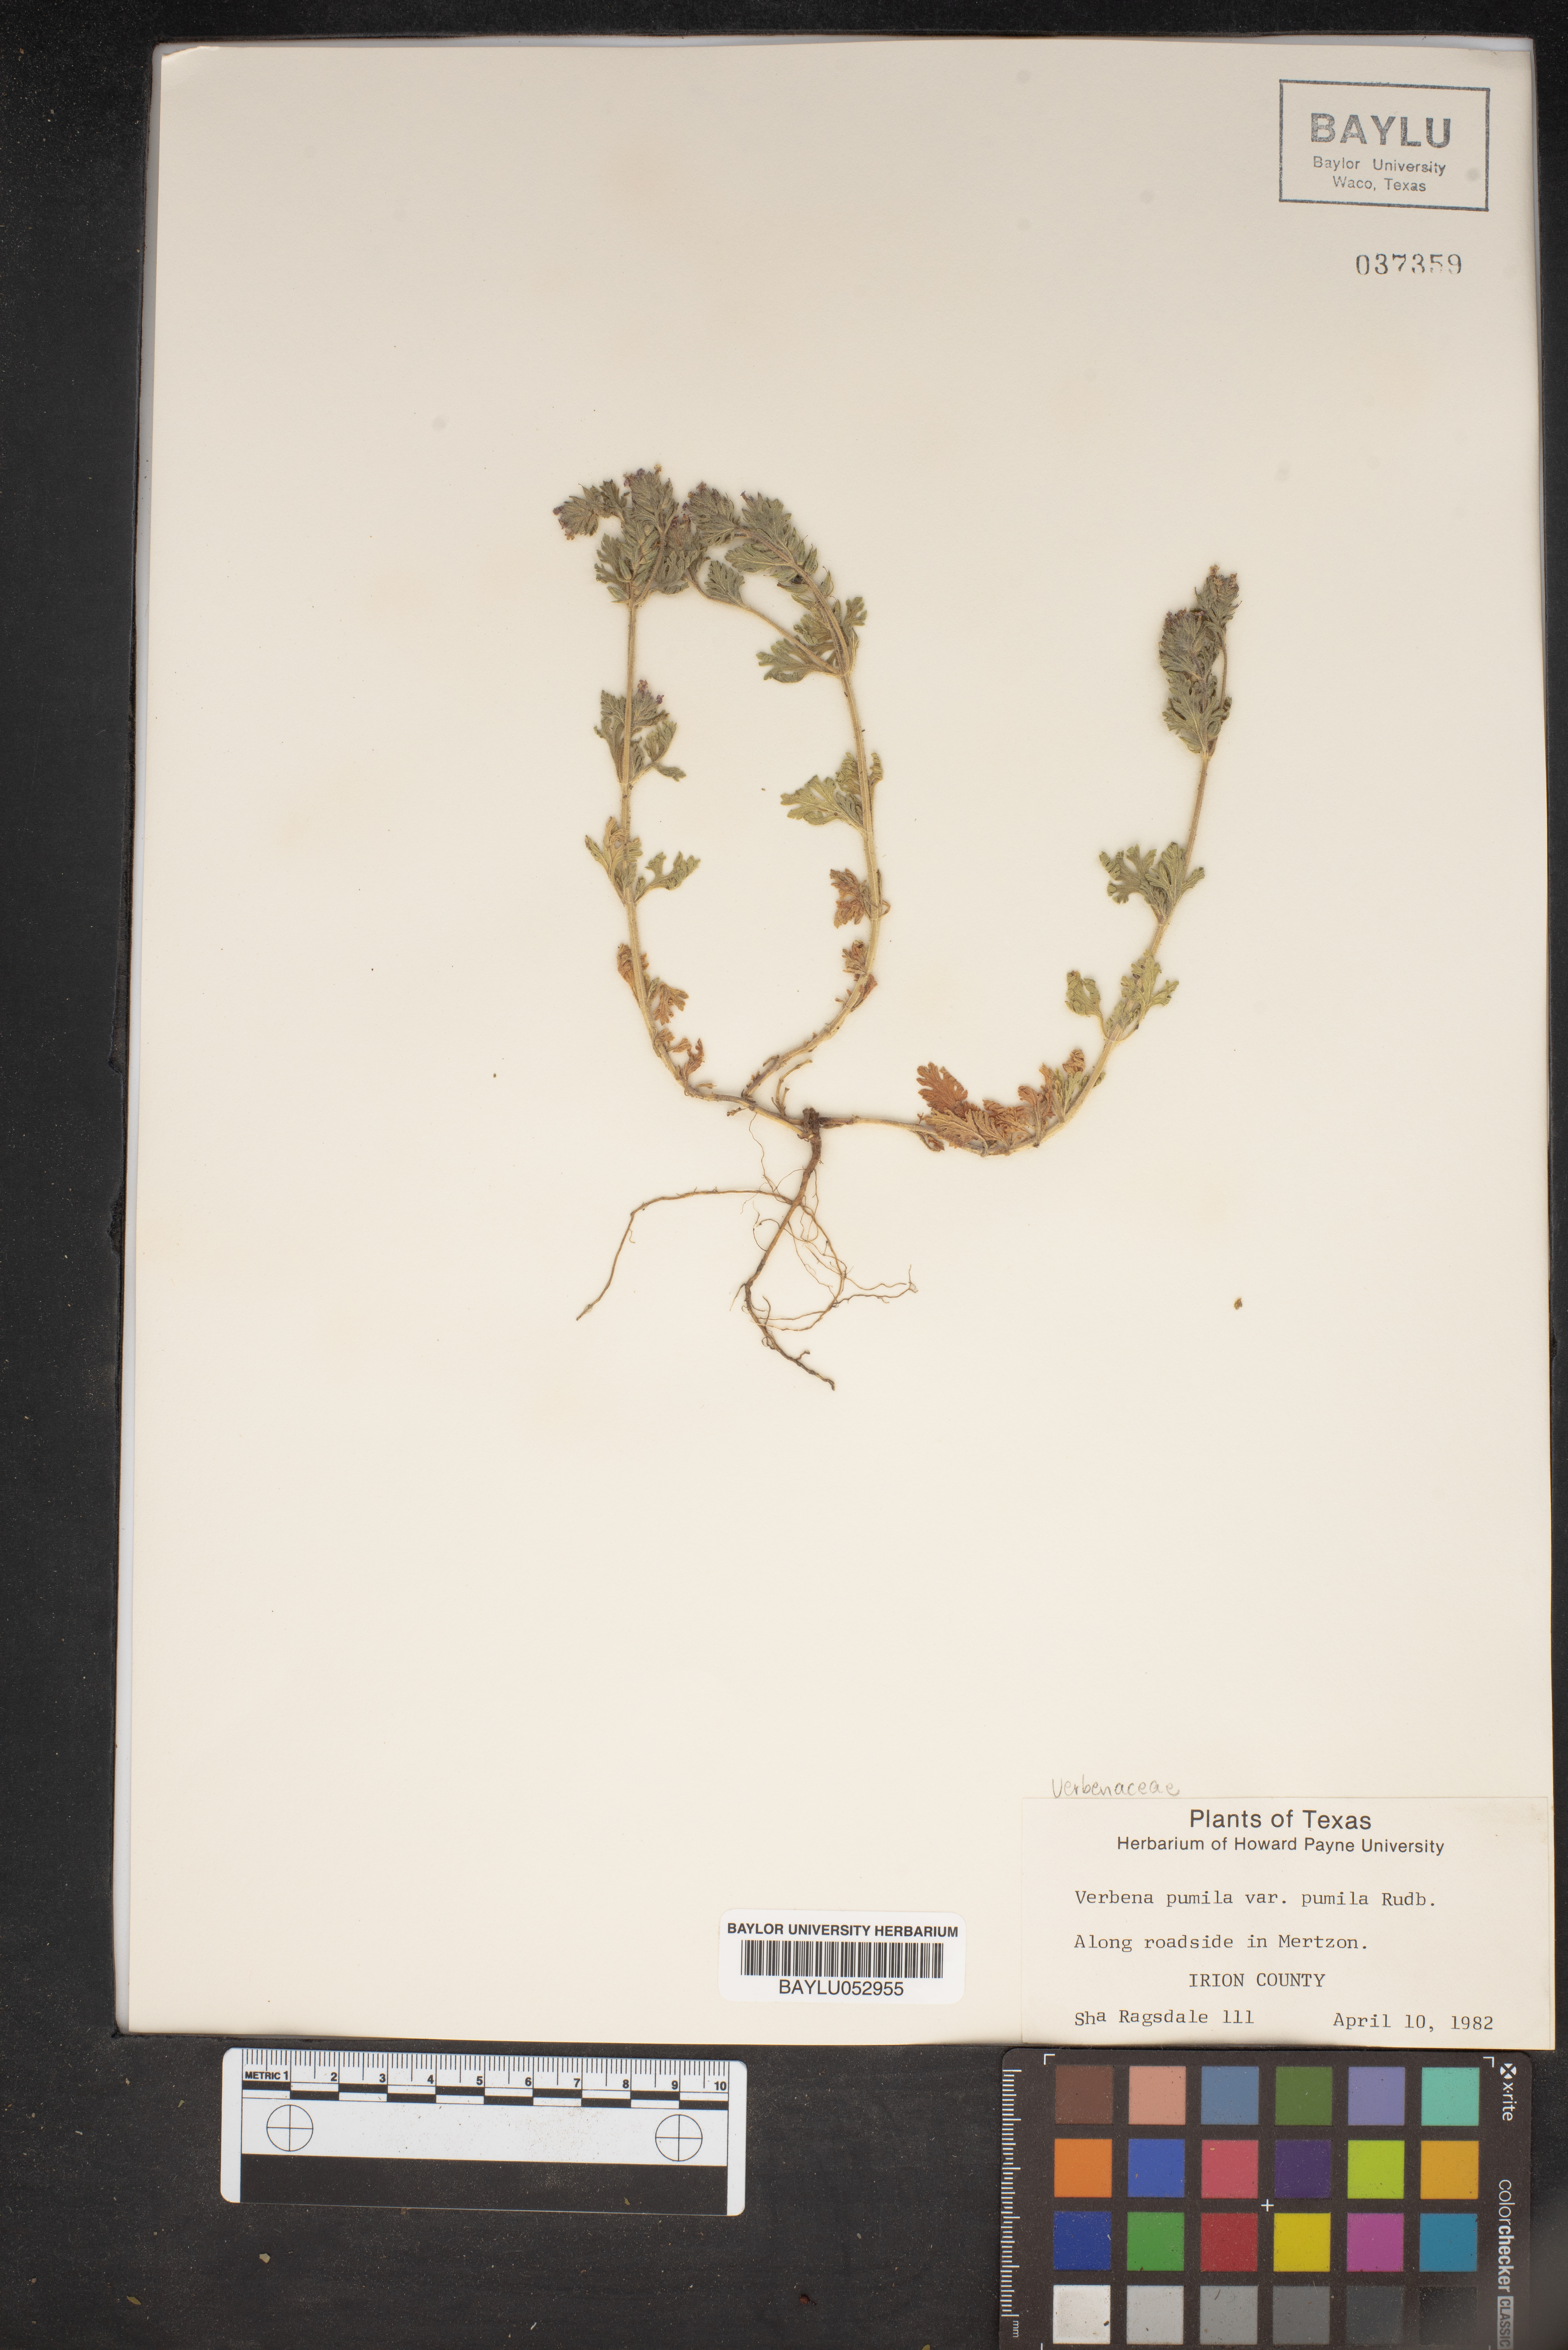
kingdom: Plantae
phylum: Tracheophyta
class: Magnoliopsida
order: Lamiales
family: Verbenaceae
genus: Verbena
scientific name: Verbena pumila
